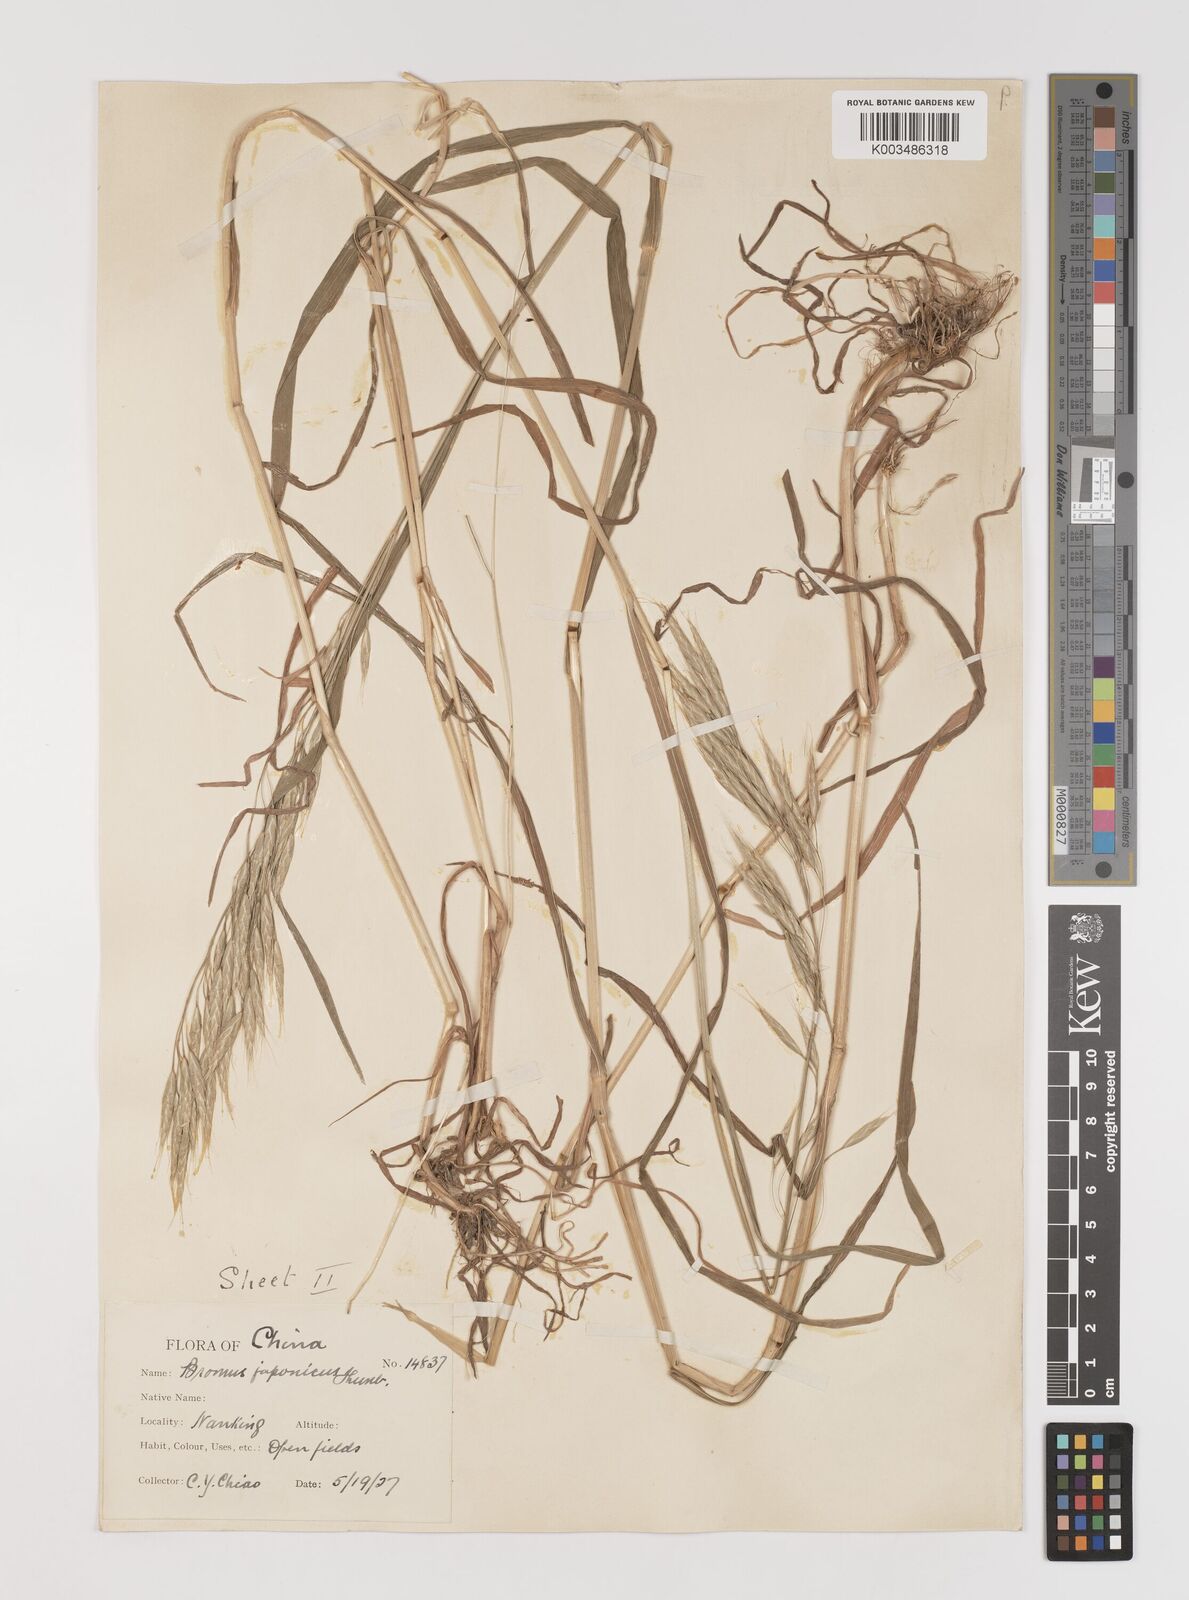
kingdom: Plantae
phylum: Tracheophyta
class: Liliopsida
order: Poales
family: Poaceae
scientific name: Poaceae
